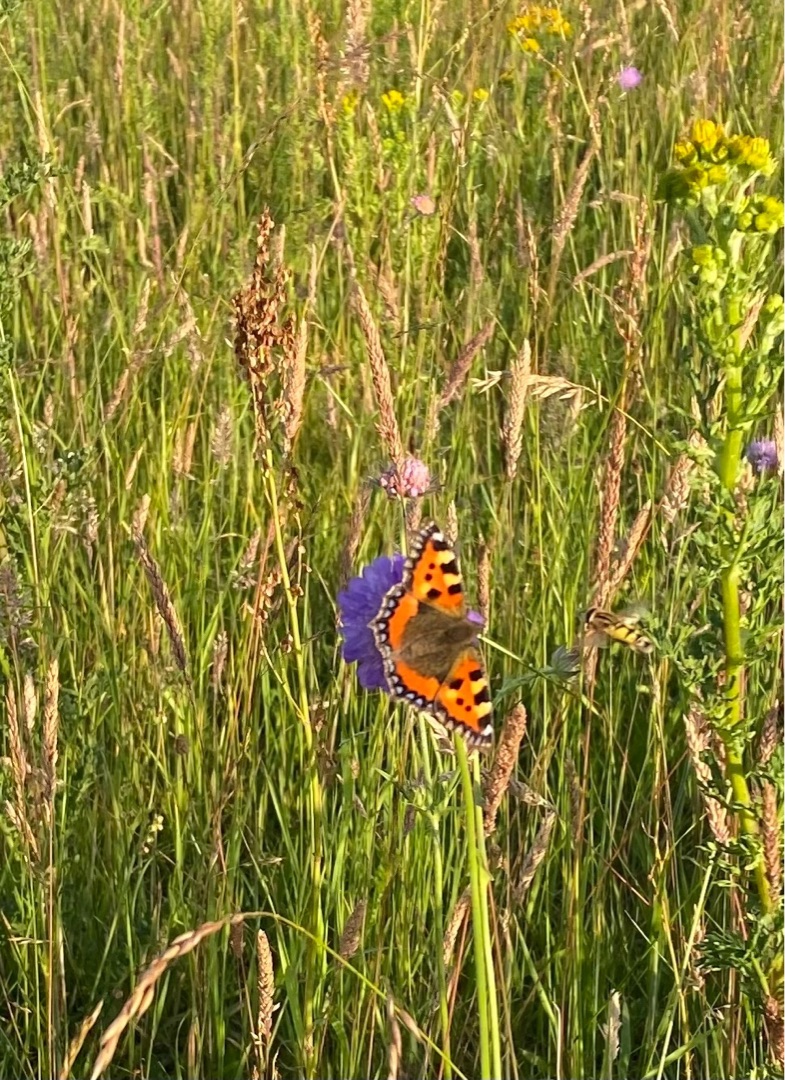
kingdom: Animalia
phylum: Arthropoda
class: Insecta
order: Lepidoptera
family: Nymphalidae
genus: Aglais
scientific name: Aglais urticae
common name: Nældens takvinge
